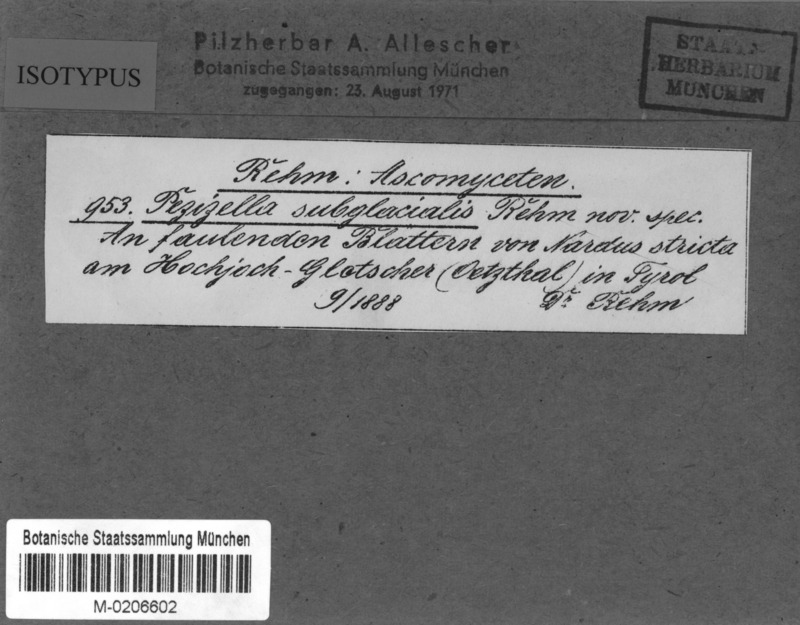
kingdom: Fungi
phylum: Ascomycota
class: Leotiomycetes
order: Helotiales
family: Pezizellaceae
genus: Pezizella
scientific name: Pezizella subglacialis
